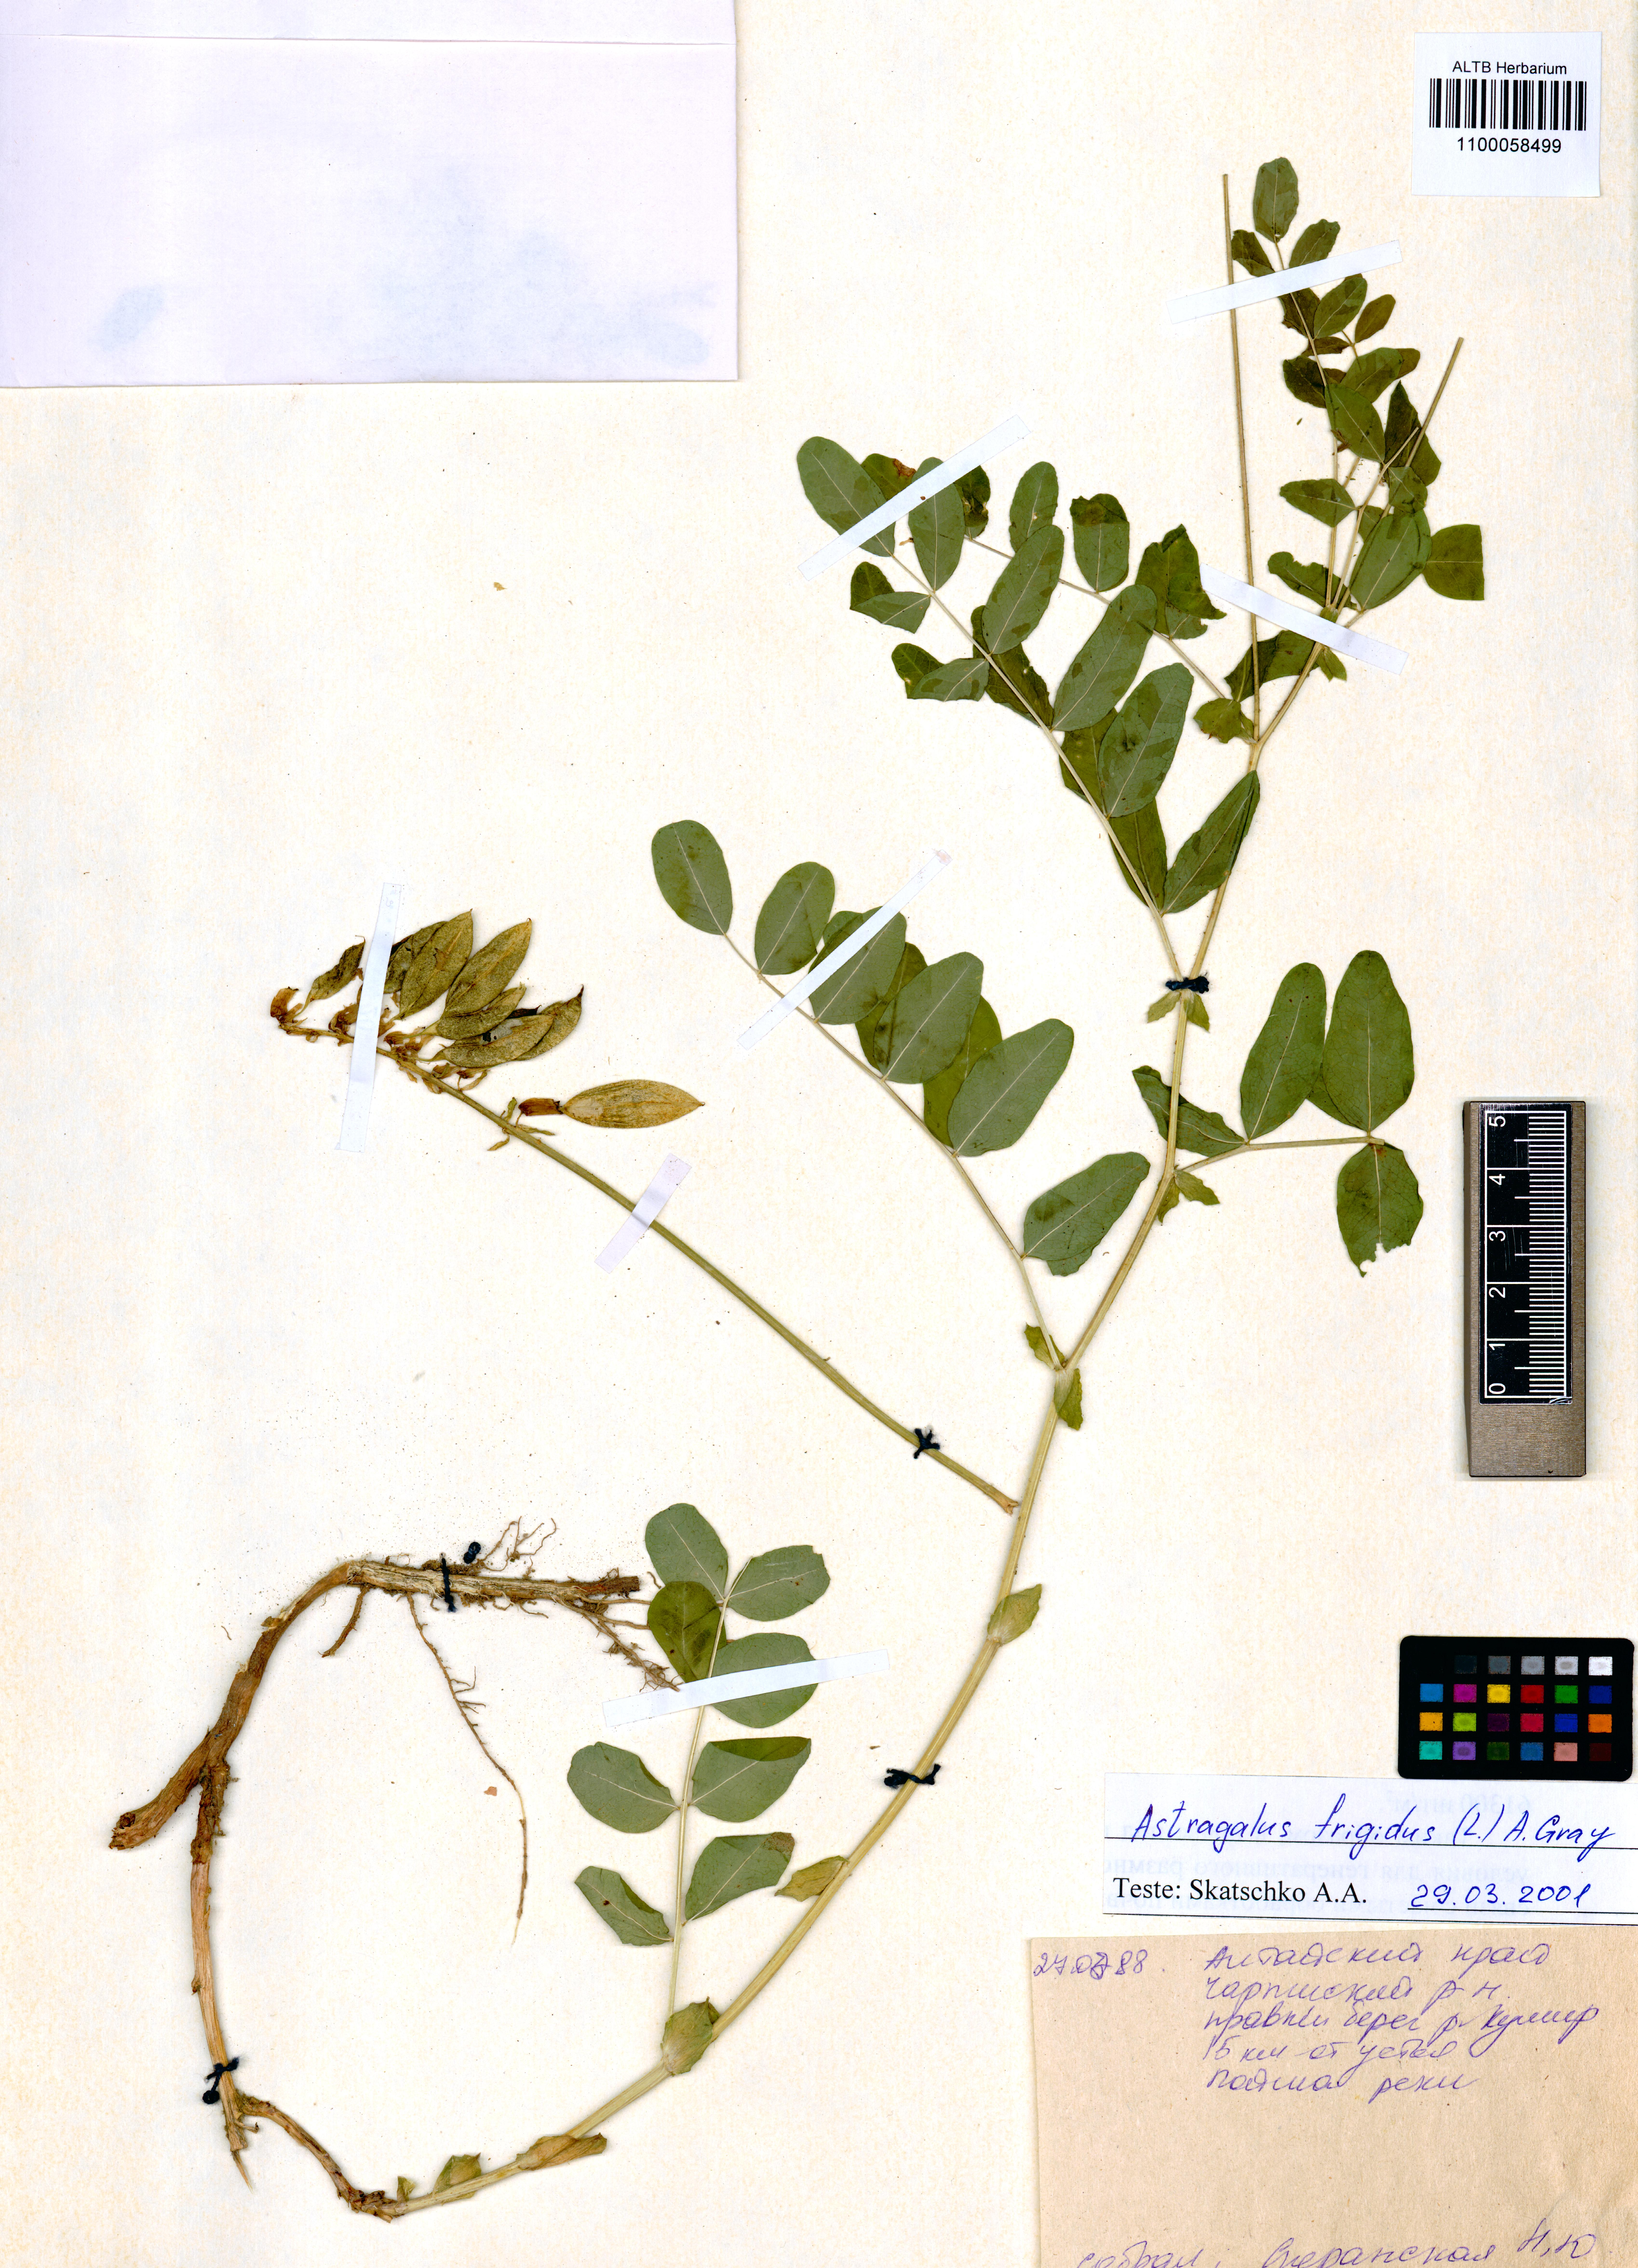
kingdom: Plantae
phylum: Tracheophyta
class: Magnoliopsida
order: Fabales
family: Fabaceae
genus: Astragalus
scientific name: Astragalus frigidus
